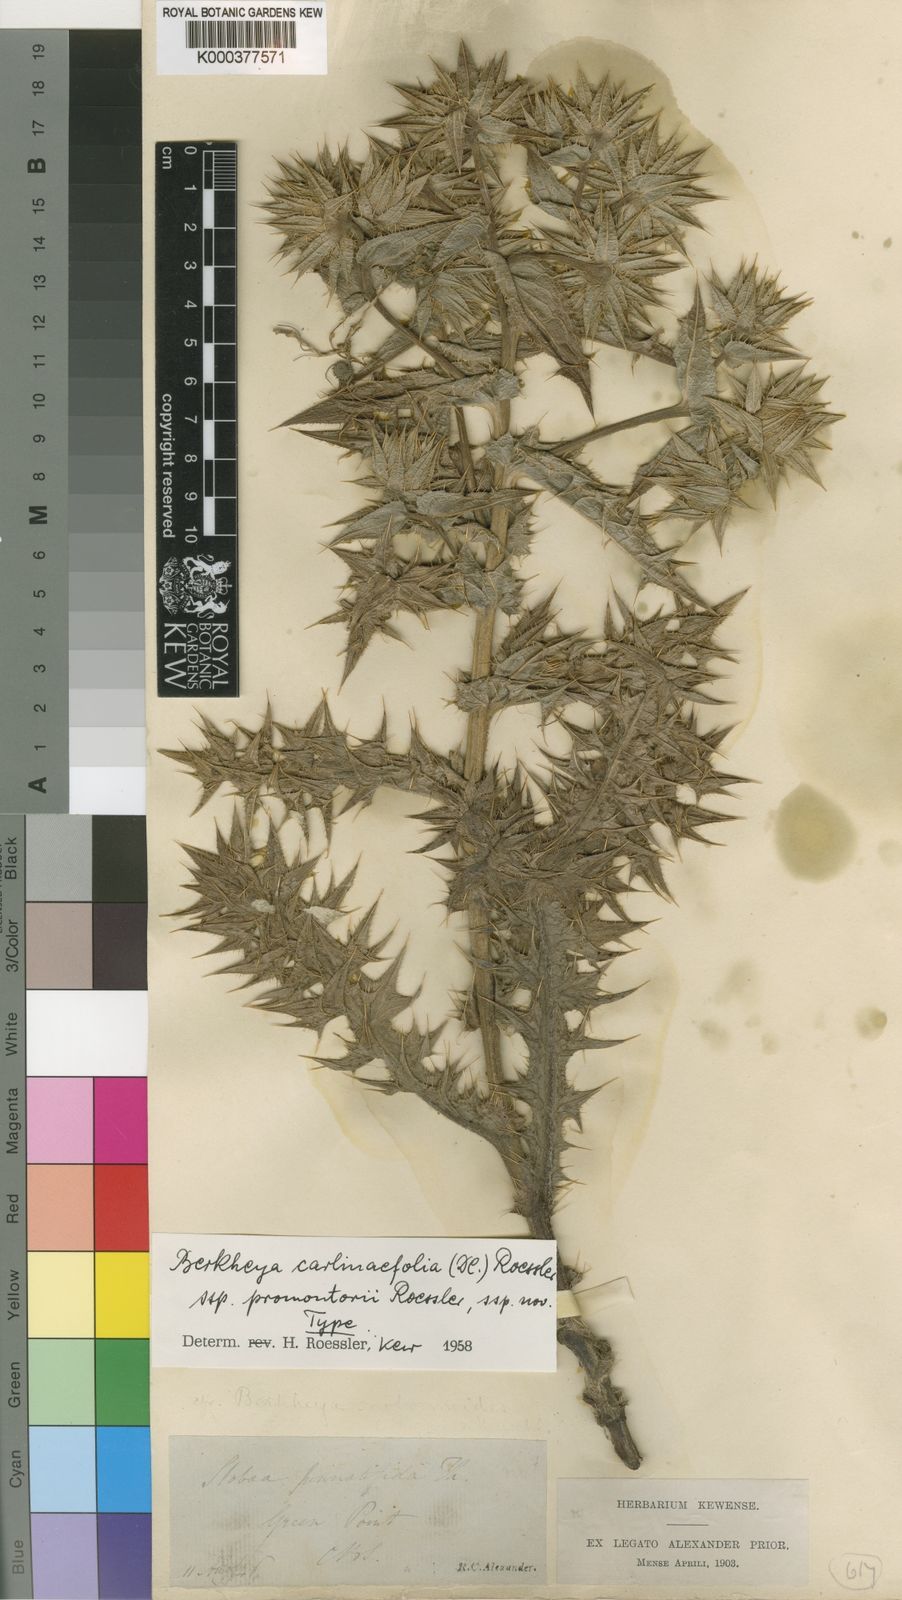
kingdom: Plantae
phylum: Tracheophyta
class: Magnoliopsida
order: Asterales
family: Asteraceae
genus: Berkheya
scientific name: Berkheya carlinifolia
